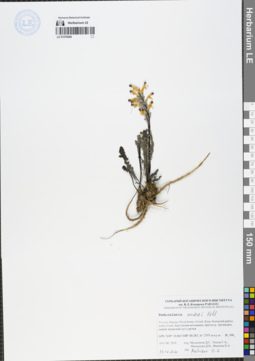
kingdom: Plantae
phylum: Tracheophyta
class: Magnoliopsida
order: Lamiales
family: Orobanchaceae
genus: Pedicularis
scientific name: Pedicularis oederi
